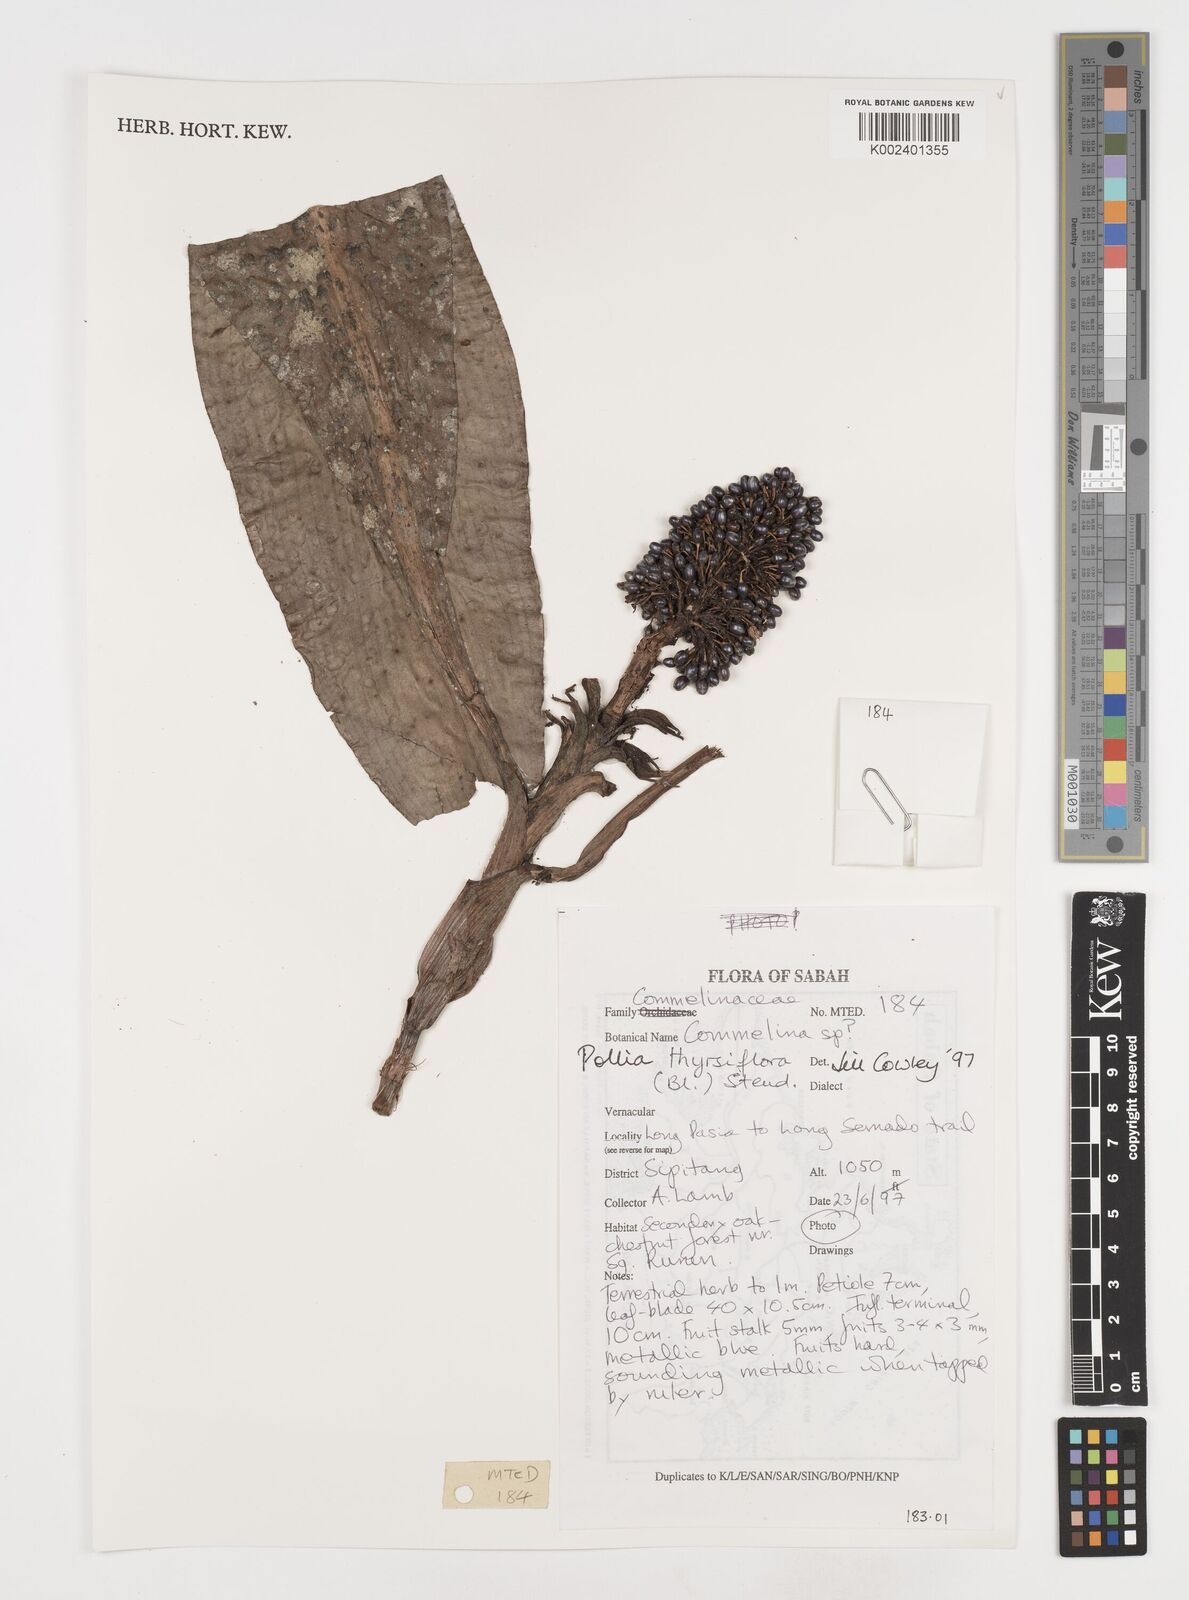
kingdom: Plantae
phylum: Tracheophyta
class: Liliopsida
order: Commelinales
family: Commelinaceae
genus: Pollia
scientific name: Pollia thyrsiflora
